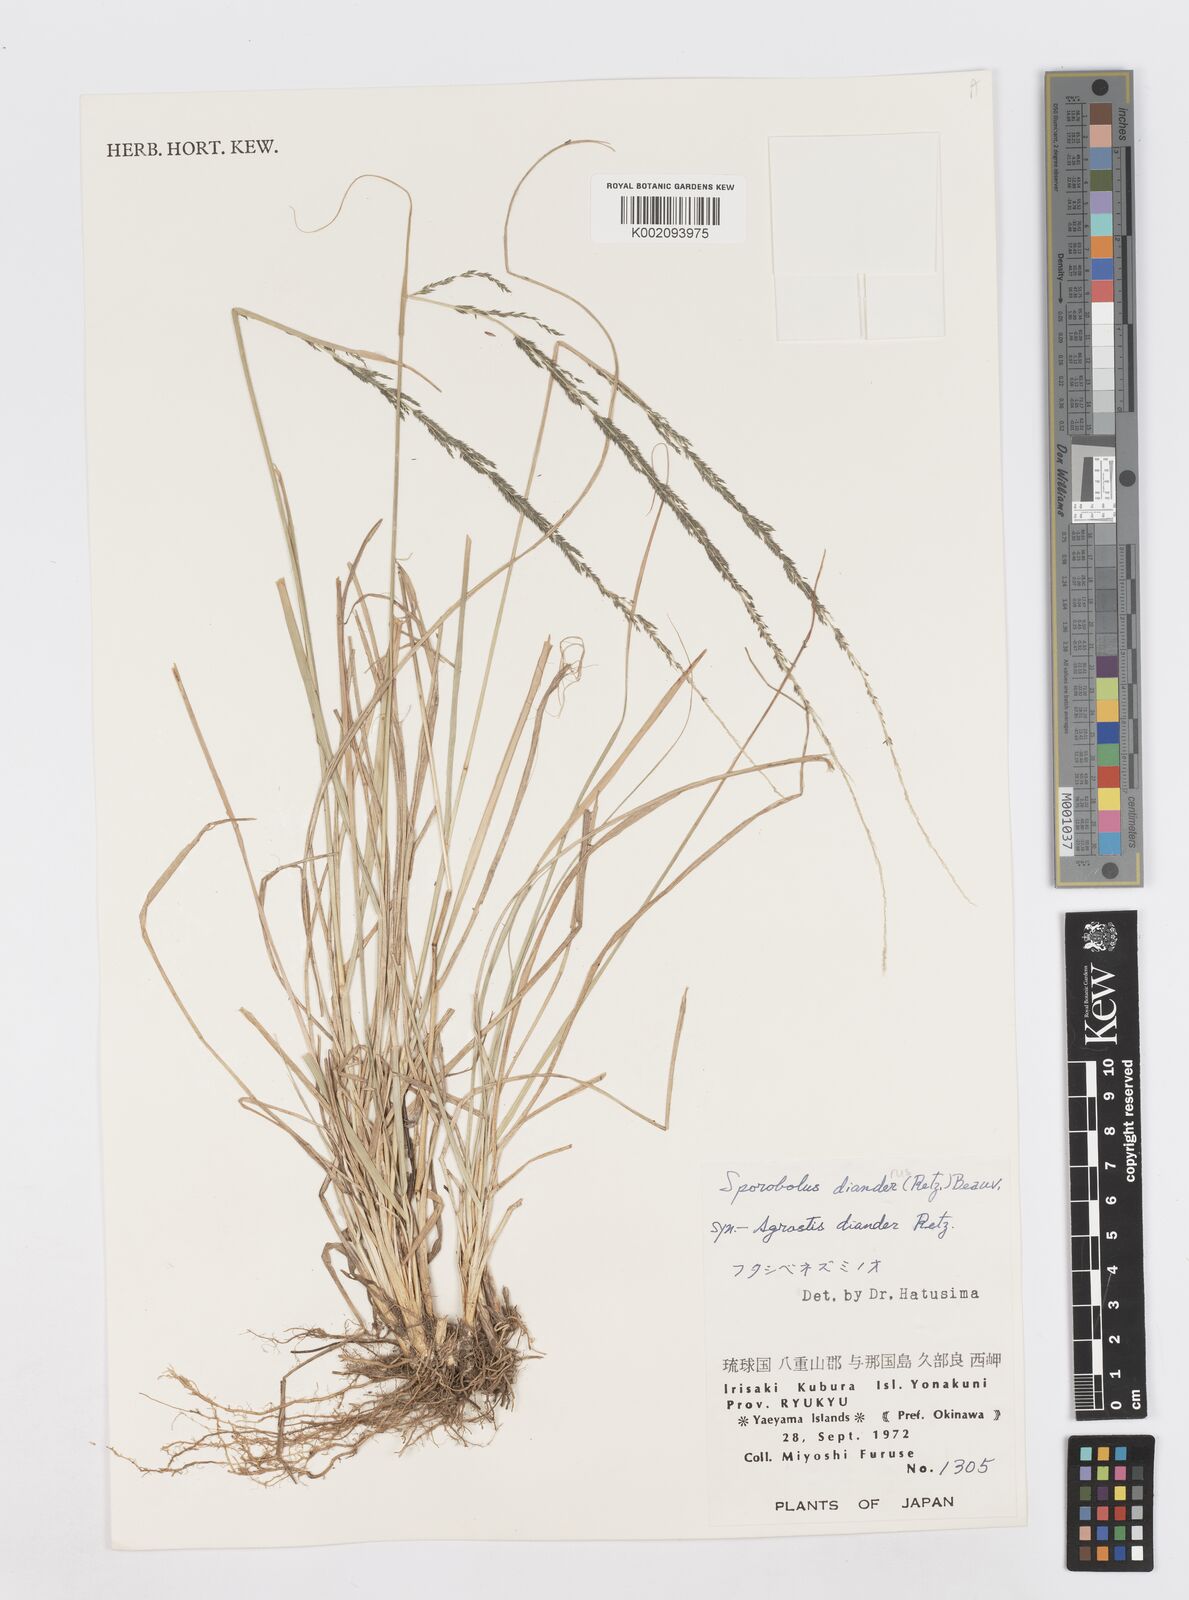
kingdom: Plantae
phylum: Tracheophyta
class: Liliopsida
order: Poales
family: Poaceae
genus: Sporobolus
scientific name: Sporobolus diandrus
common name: Tussock dropseed
